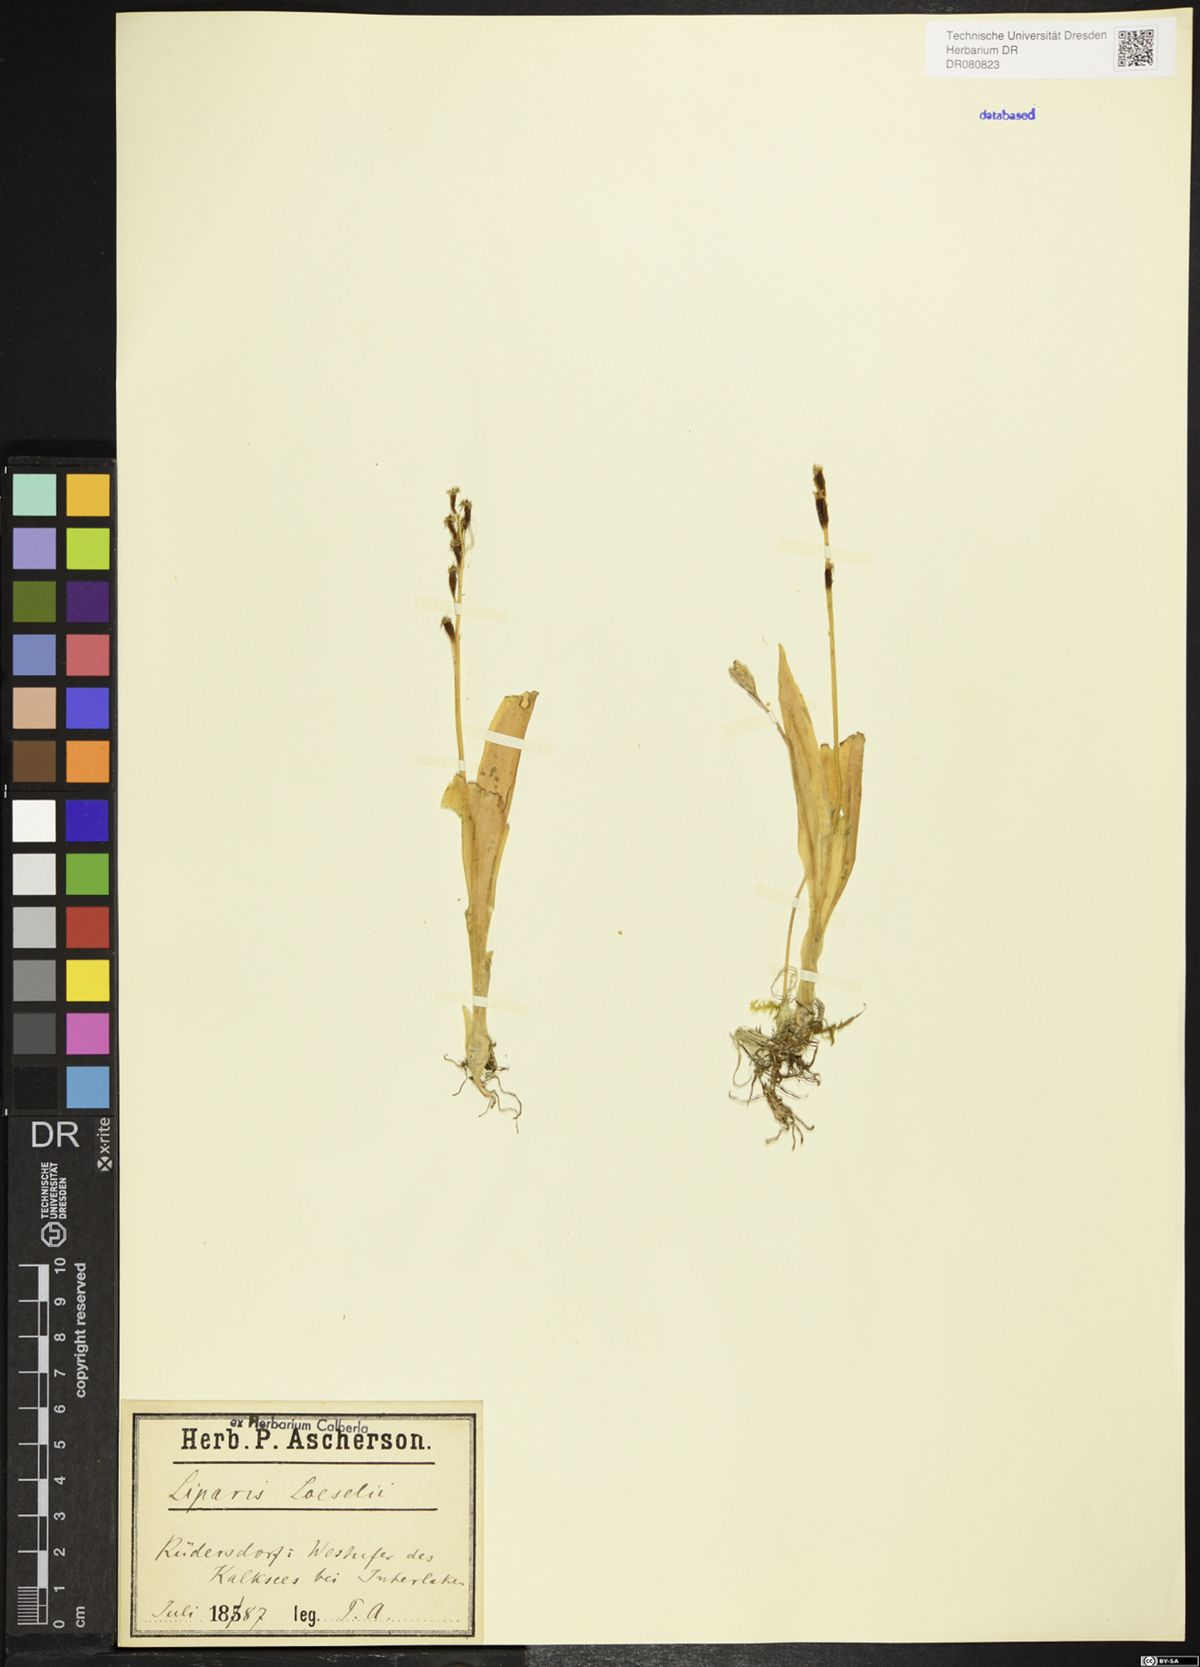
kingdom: Animalia
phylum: Arthropoda
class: Insecta
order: Coleoptera
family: Curculionidae
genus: Liparis
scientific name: Liparis loeselii
